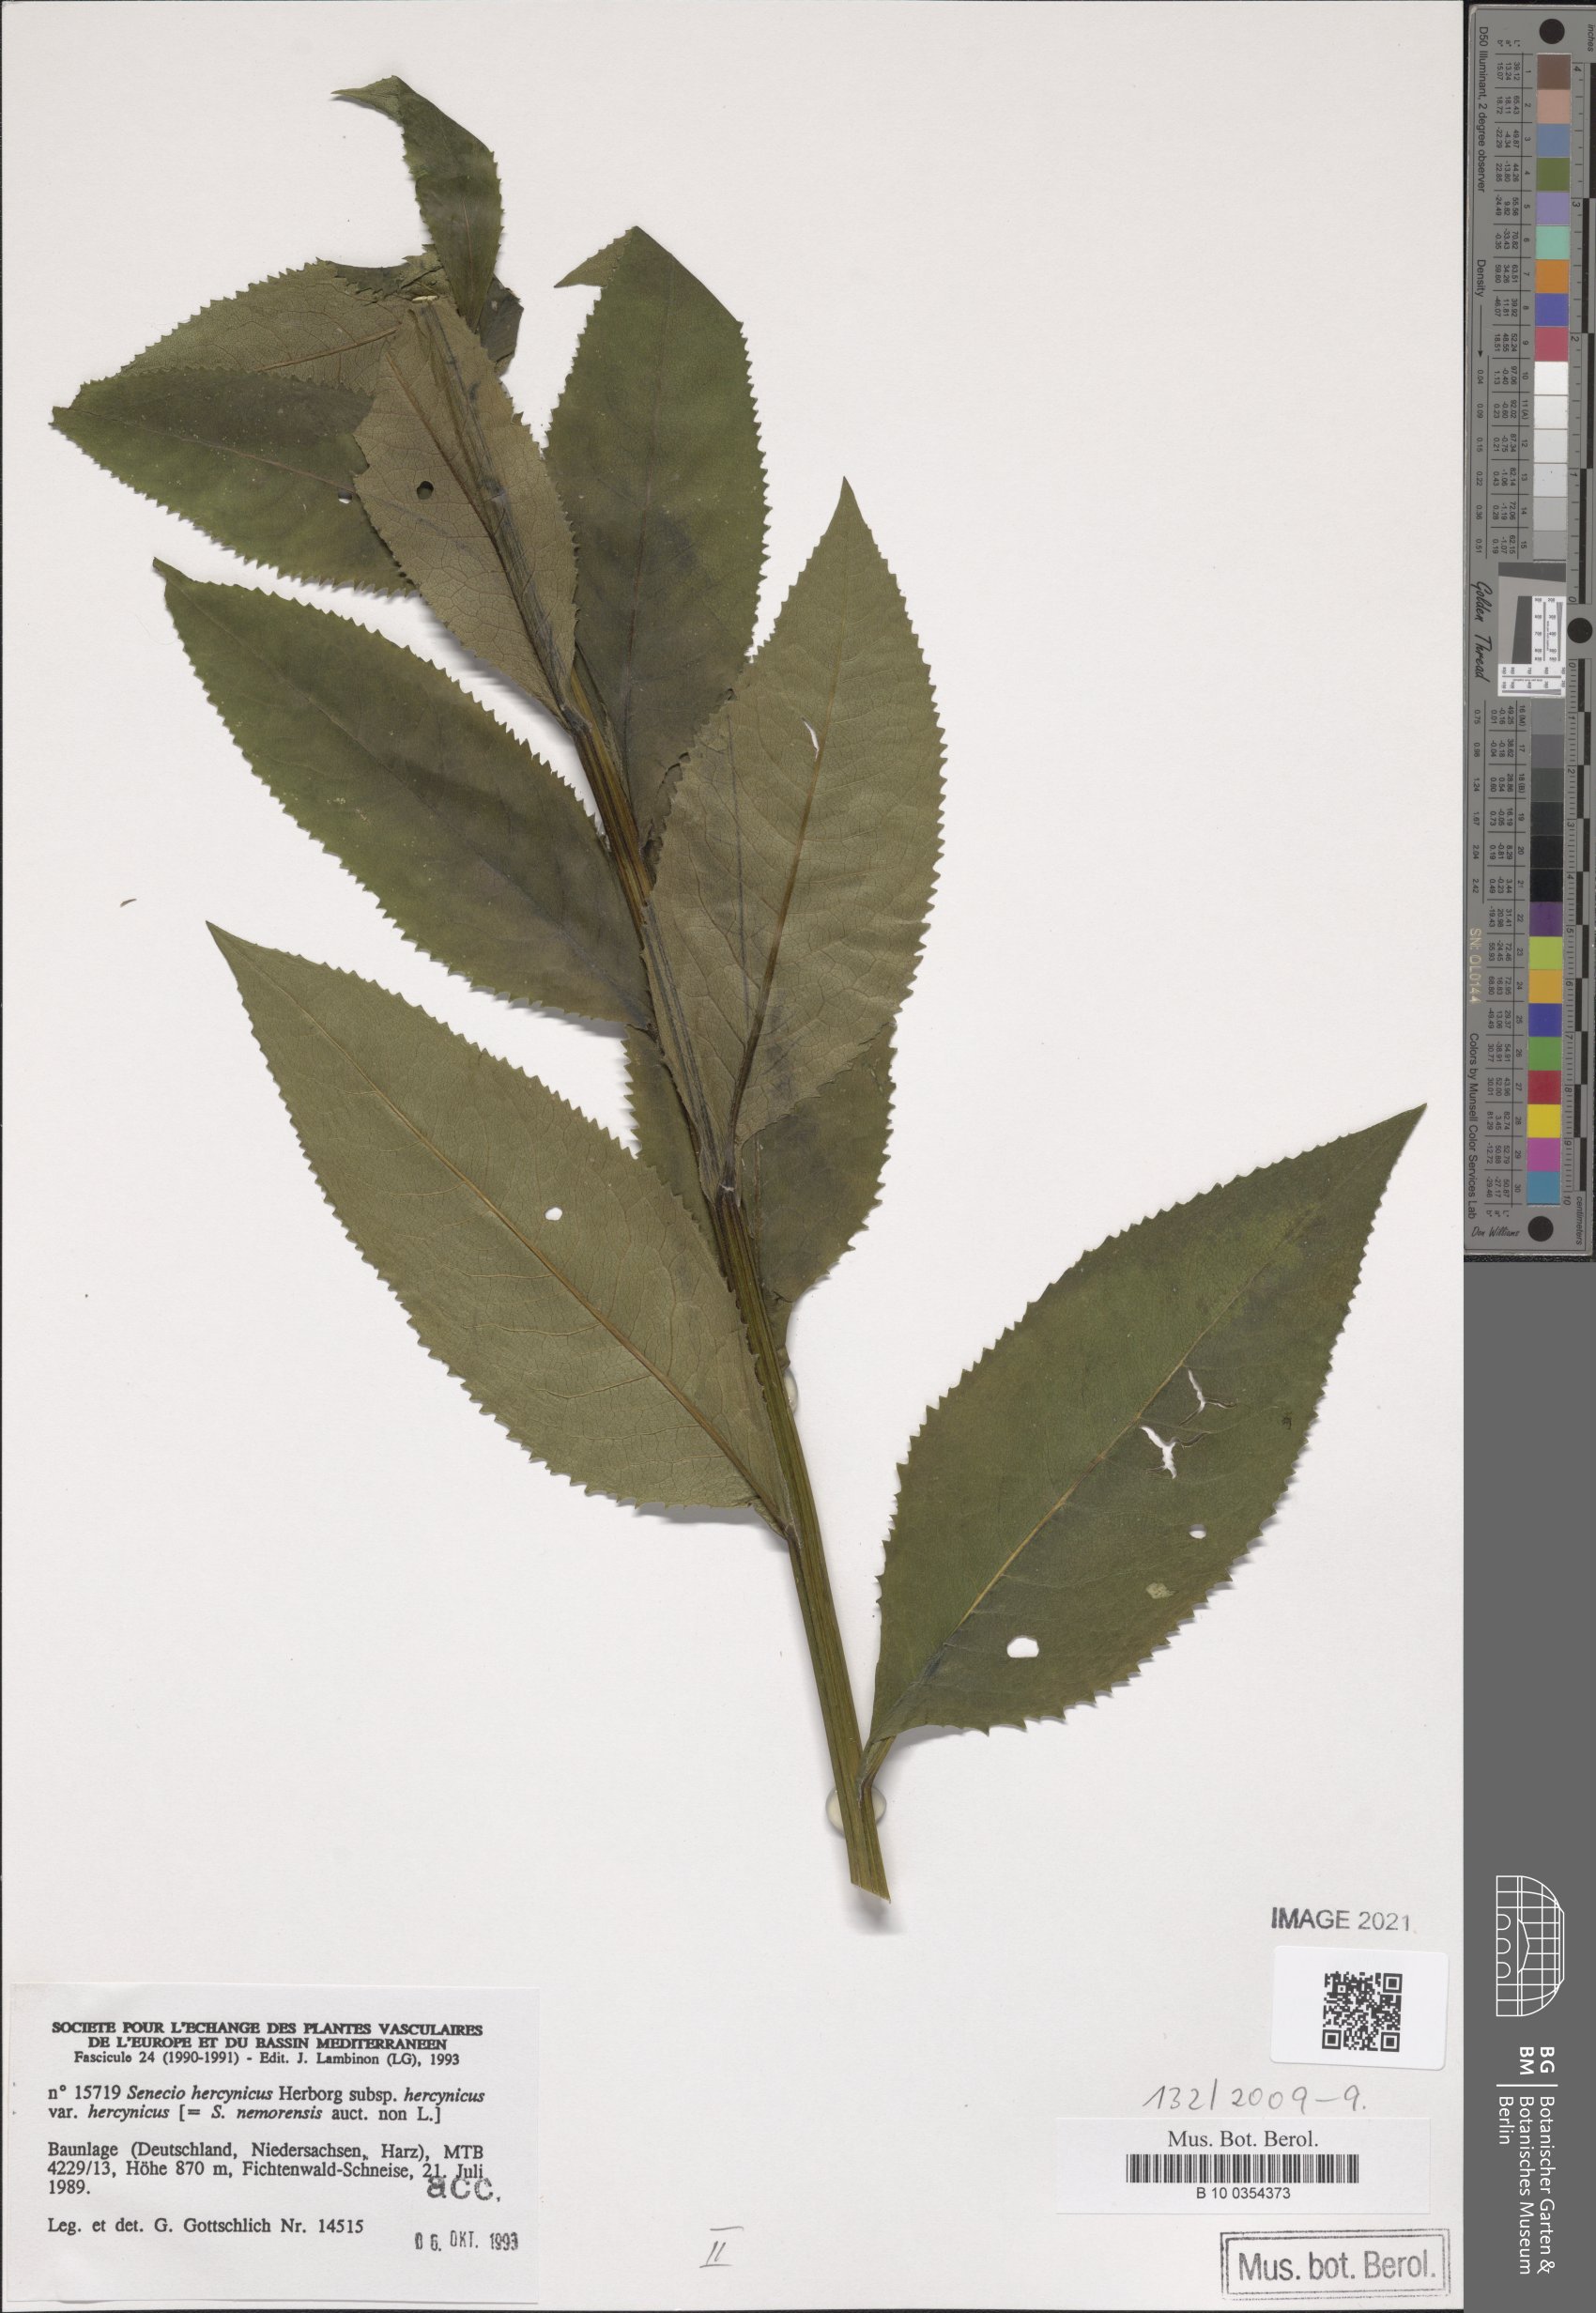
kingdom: Plantae
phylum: Tracheophyta
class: Magnoliopsida
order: Asterales
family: Asteraceae
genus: Senecio
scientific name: Senecio hercynicus
